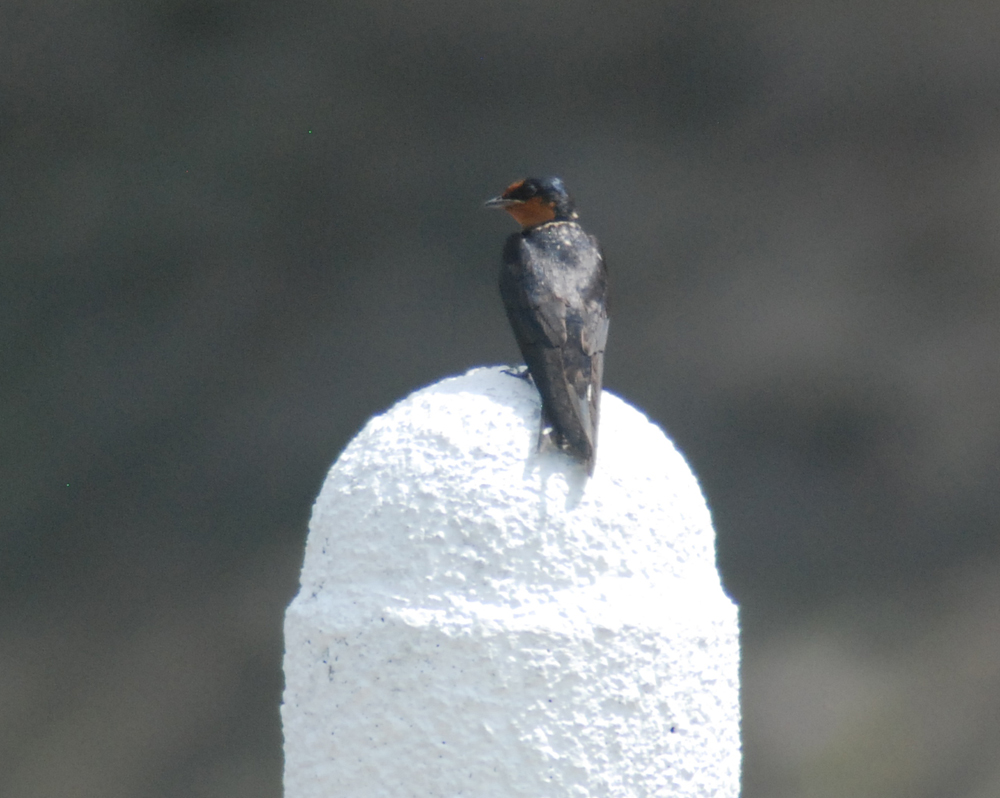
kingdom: Animalia
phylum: Chordata
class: Aves
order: Passeriformes
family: Hirundinidae
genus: Hirundo
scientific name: Hirundo tahitica
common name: Pacific swallow
